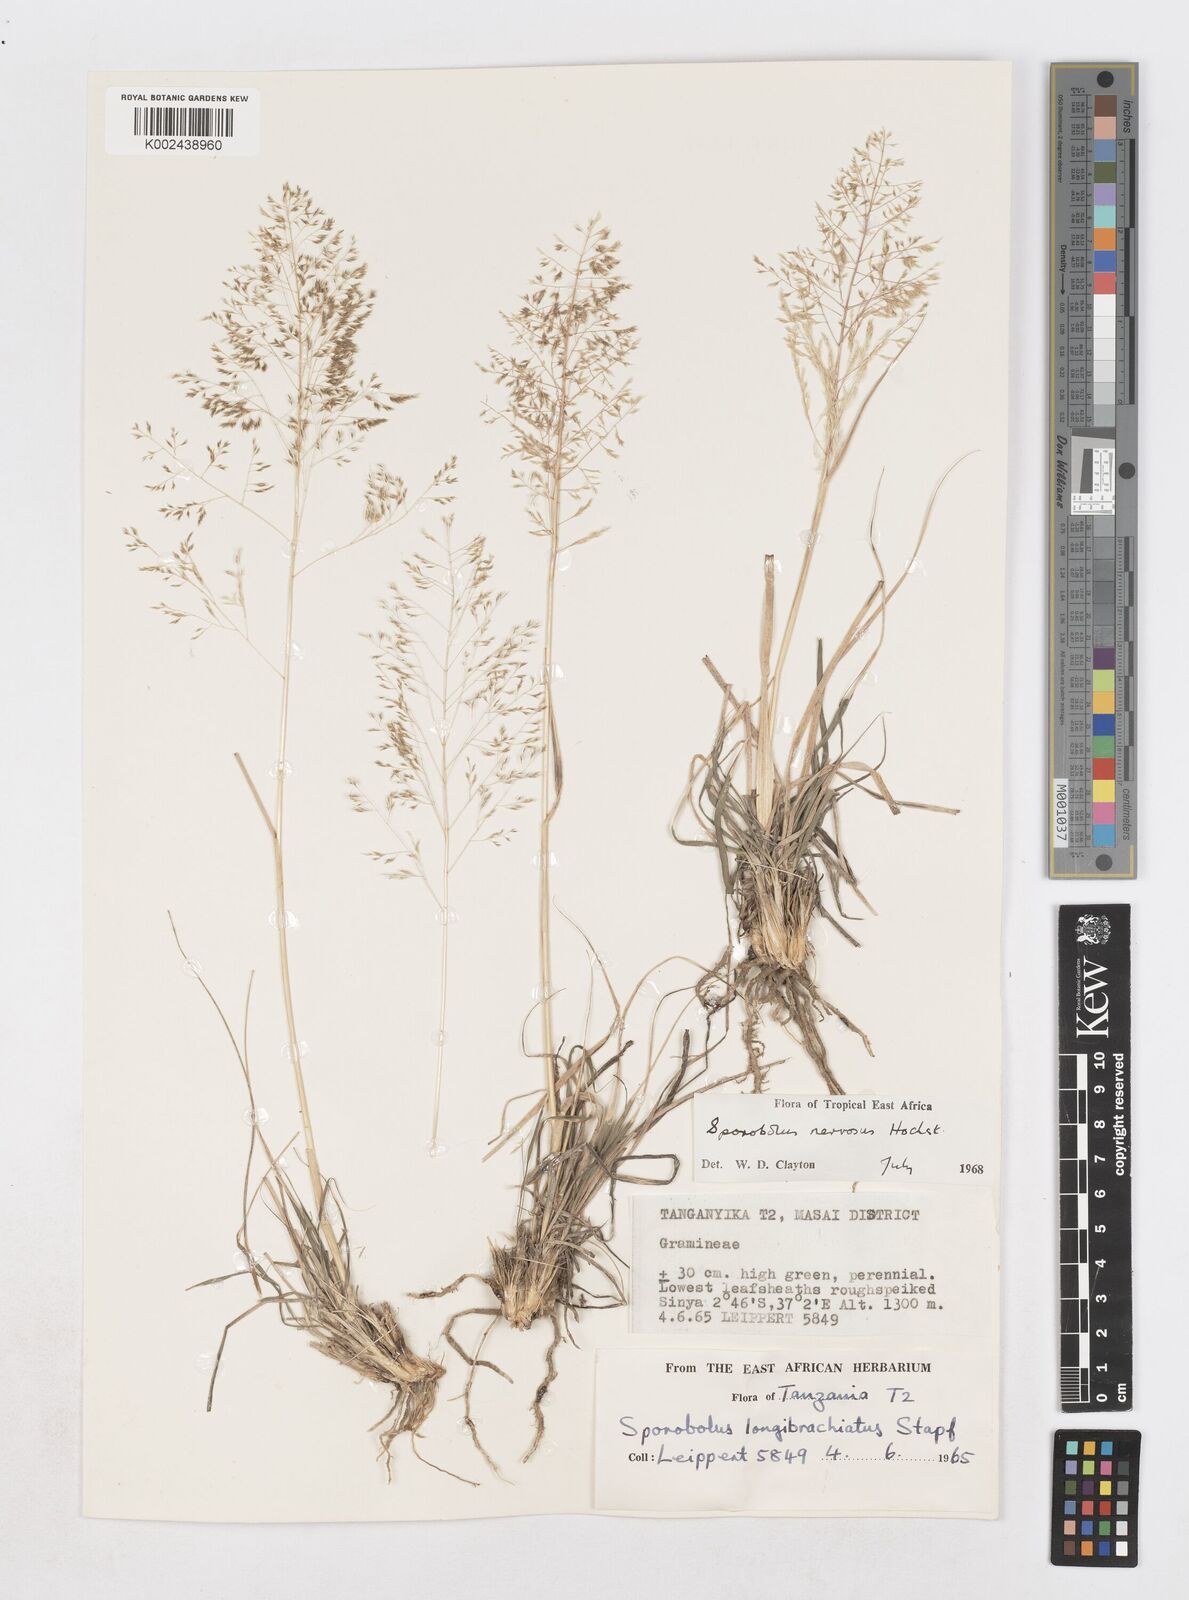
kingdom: Plantae
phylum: Tracheophyta
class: Liliopsida
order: Poales
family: Poaceae
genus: Sporobolus
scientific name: Sporobolus nervosus
